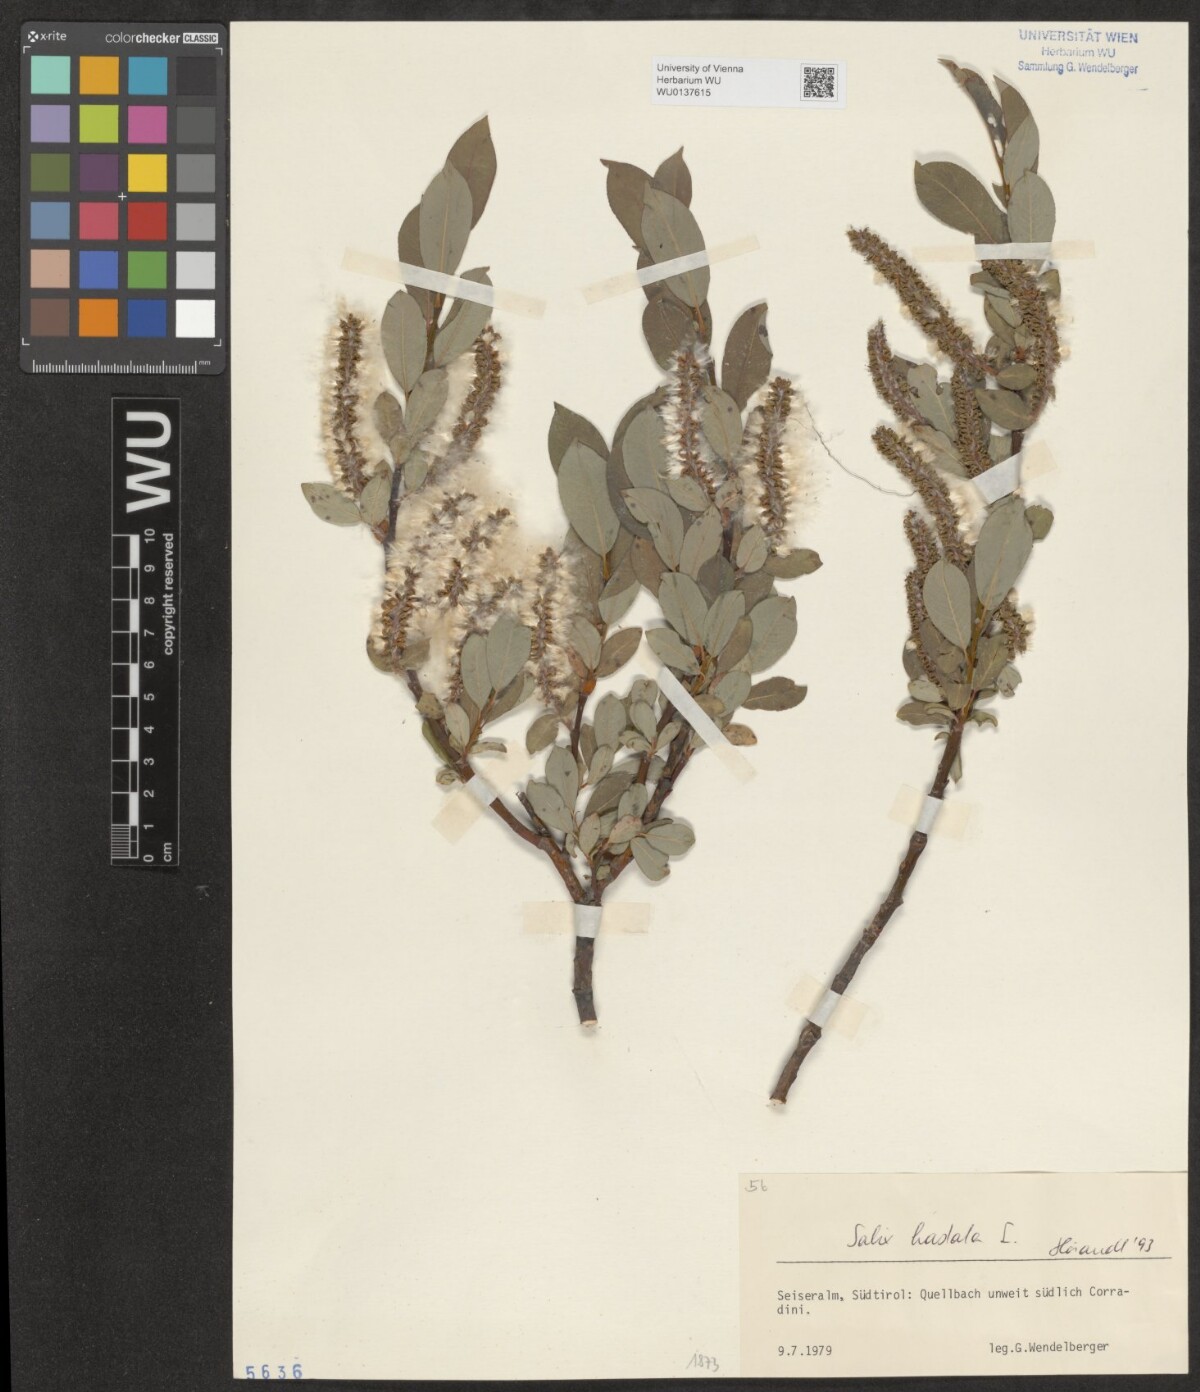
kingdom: Plantae
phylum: Tracheophyta
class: Magnoliopsida
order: Malpighiales
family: Salicaceae
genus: Salix
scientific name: Salix hastata
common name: Halberd willow
